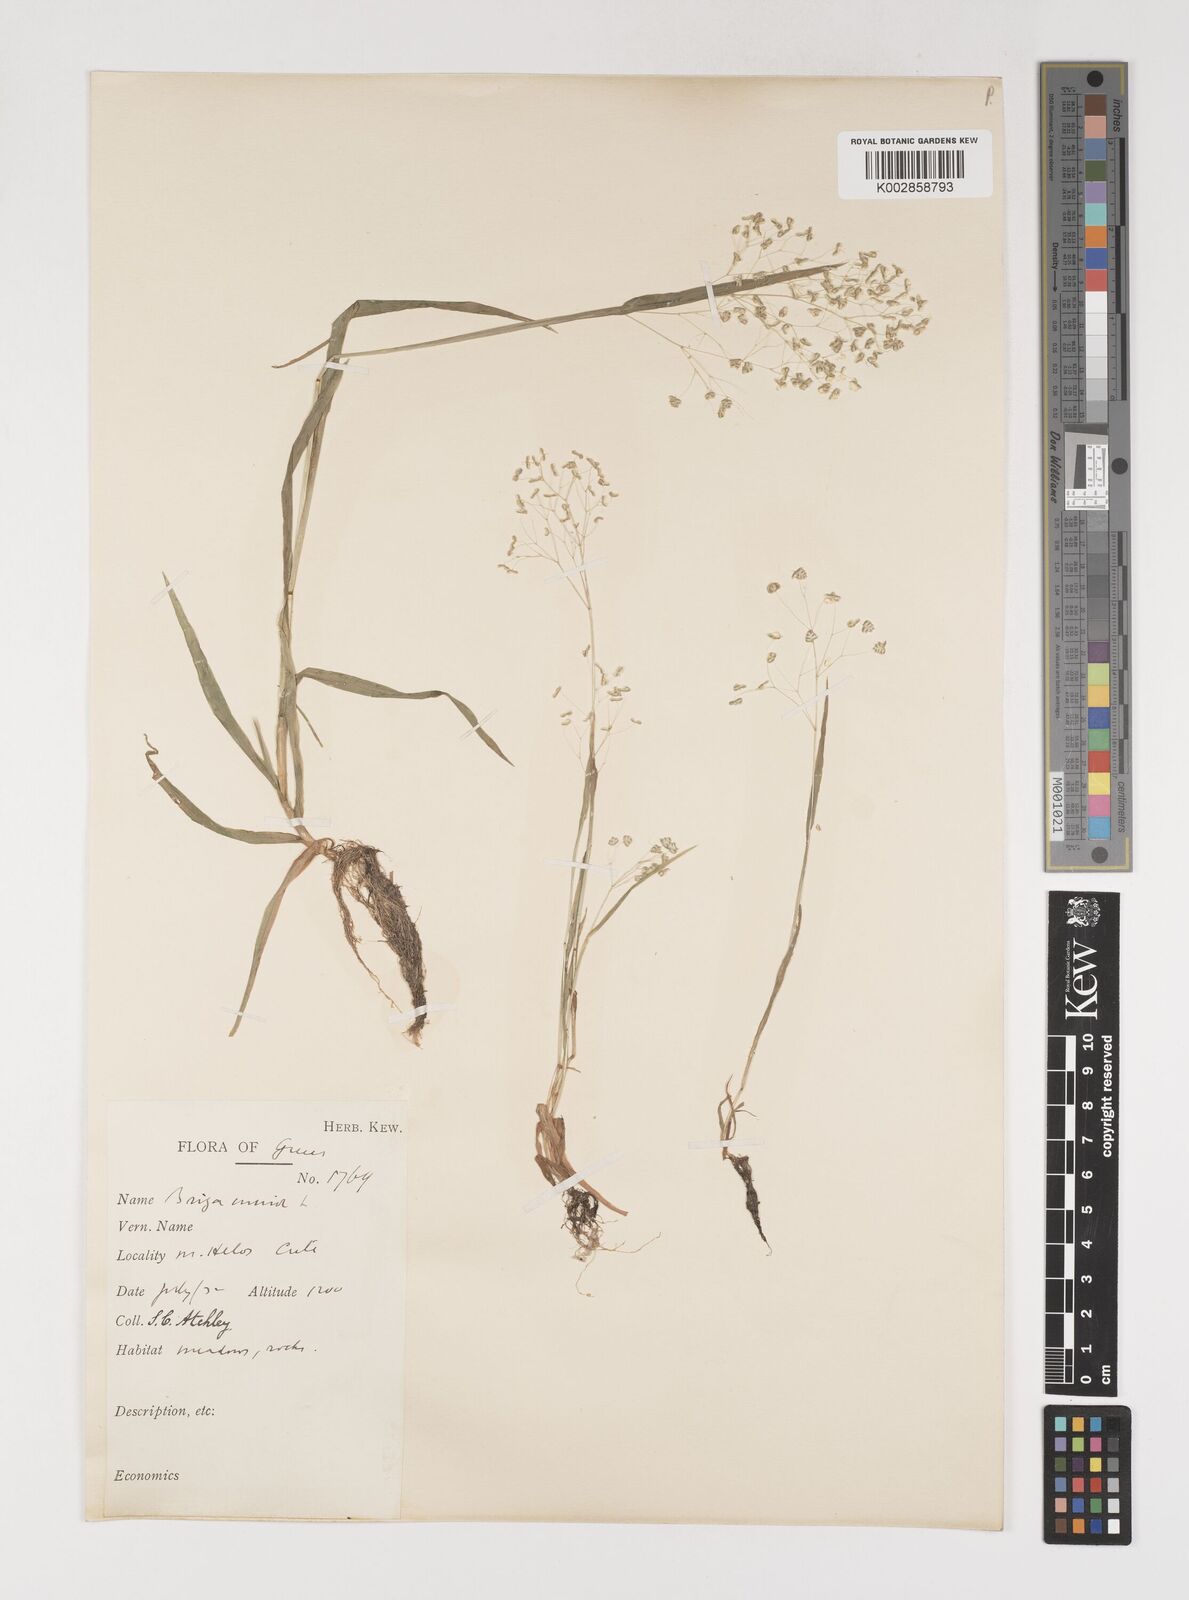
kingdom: Plantae
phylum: Tracheophyta
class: Liliopsida
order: Poales
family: Poaceae
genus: Briza
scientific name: Briza minor
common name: Lesser quaking-grass
